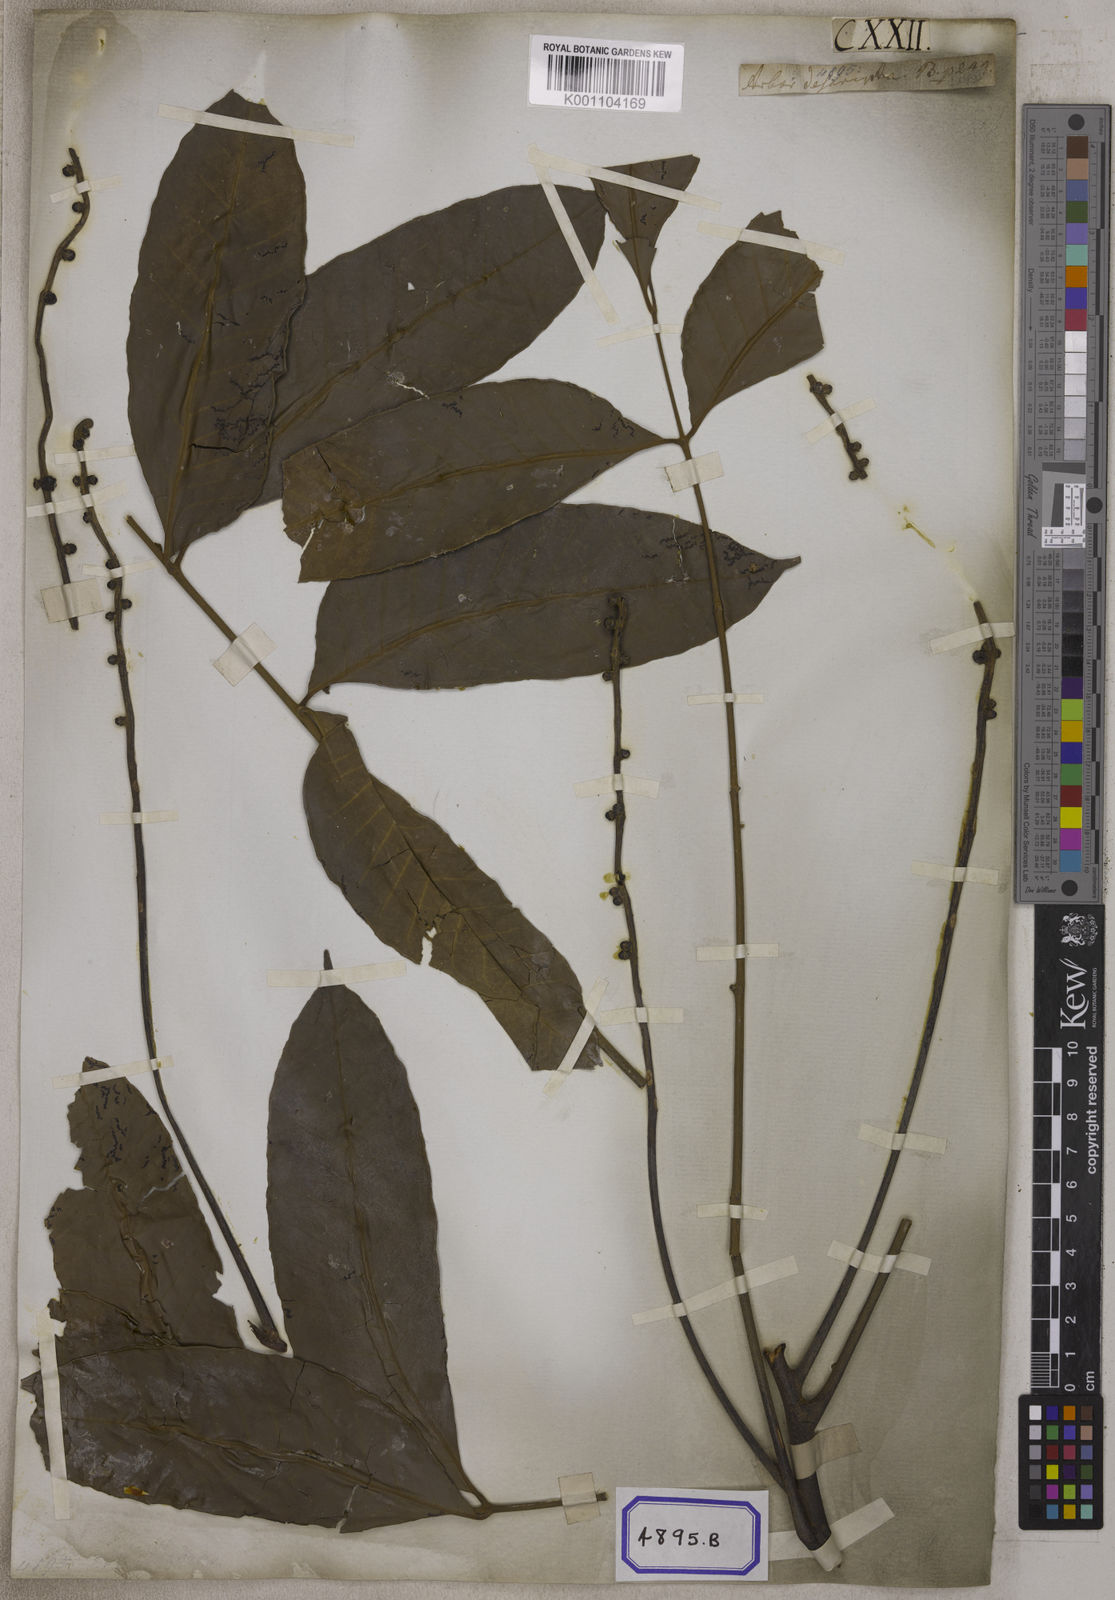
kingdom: Plantae
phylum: Tracheophyta
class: Magnoliopsida
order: Sapindales
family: Meliaceae
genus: Aphanamixis
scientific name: Aphanamixis polystachya
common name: Pithraj tree
